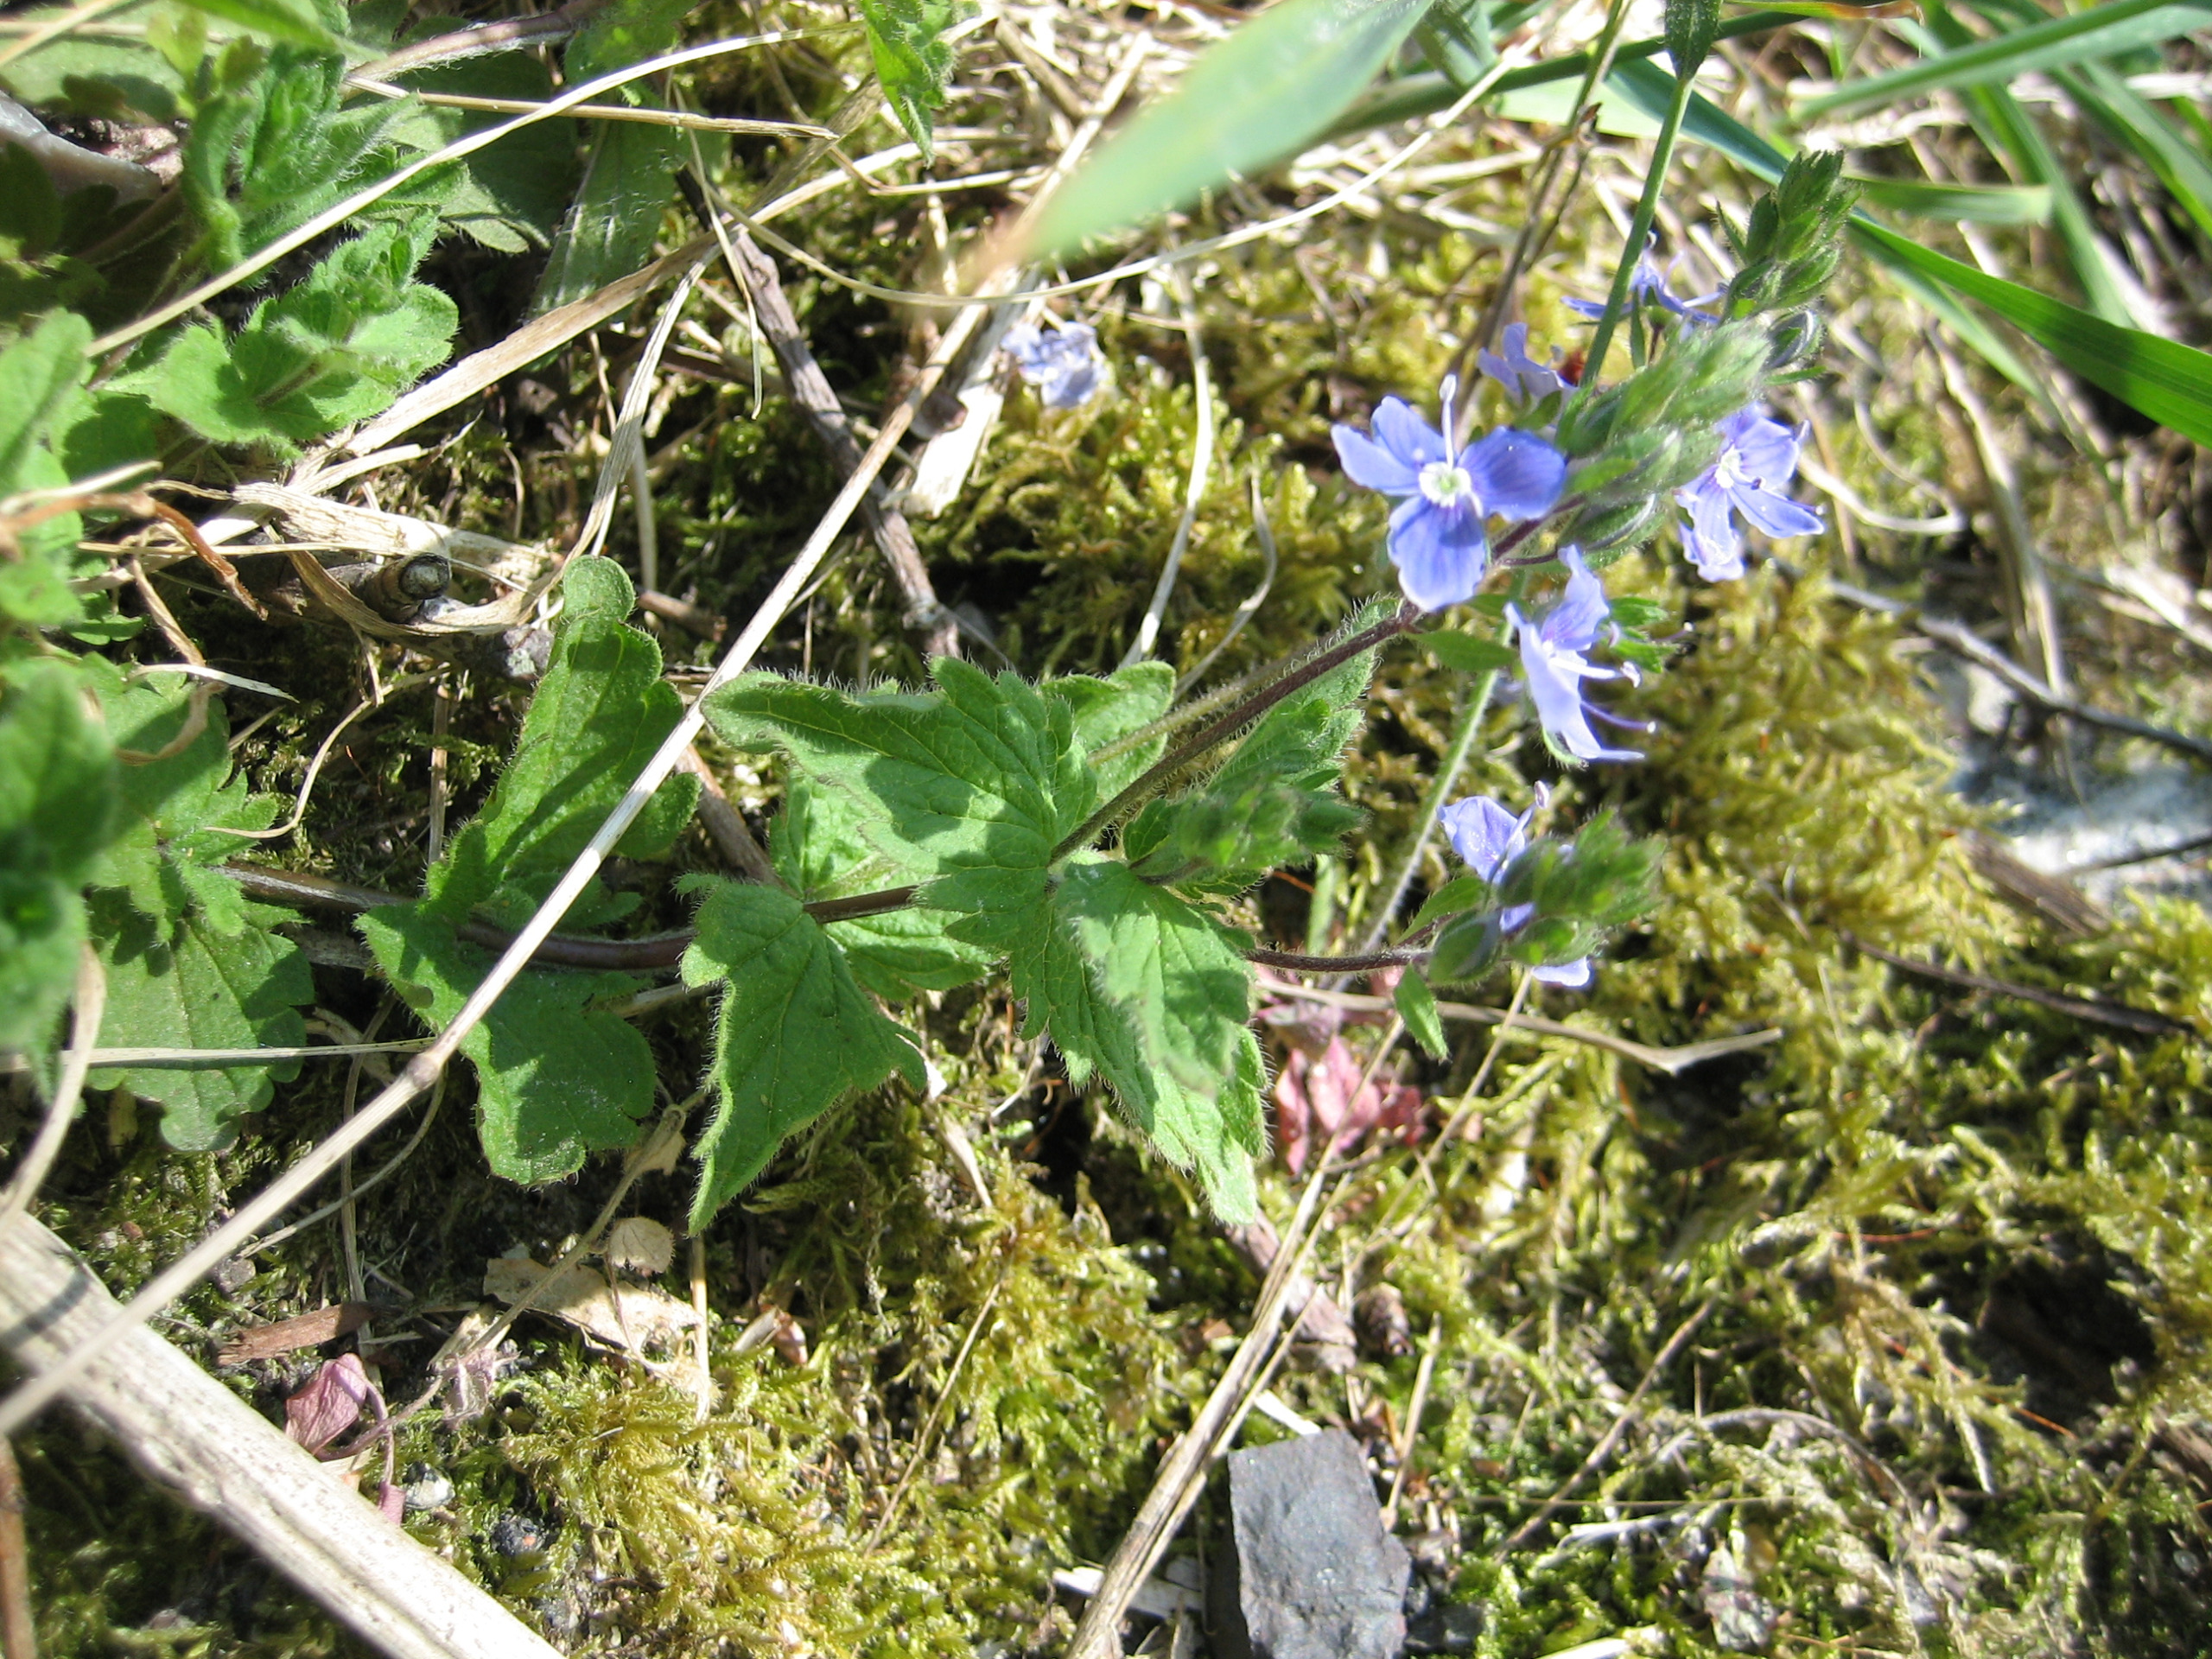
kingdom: Plantae
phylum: Tracheophyta
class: Magnoliopsida
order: Lamiales
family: Plantaginaceae
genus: Veronica
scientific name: Veronica chamaedrys
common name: Tveskægget ærenpris
